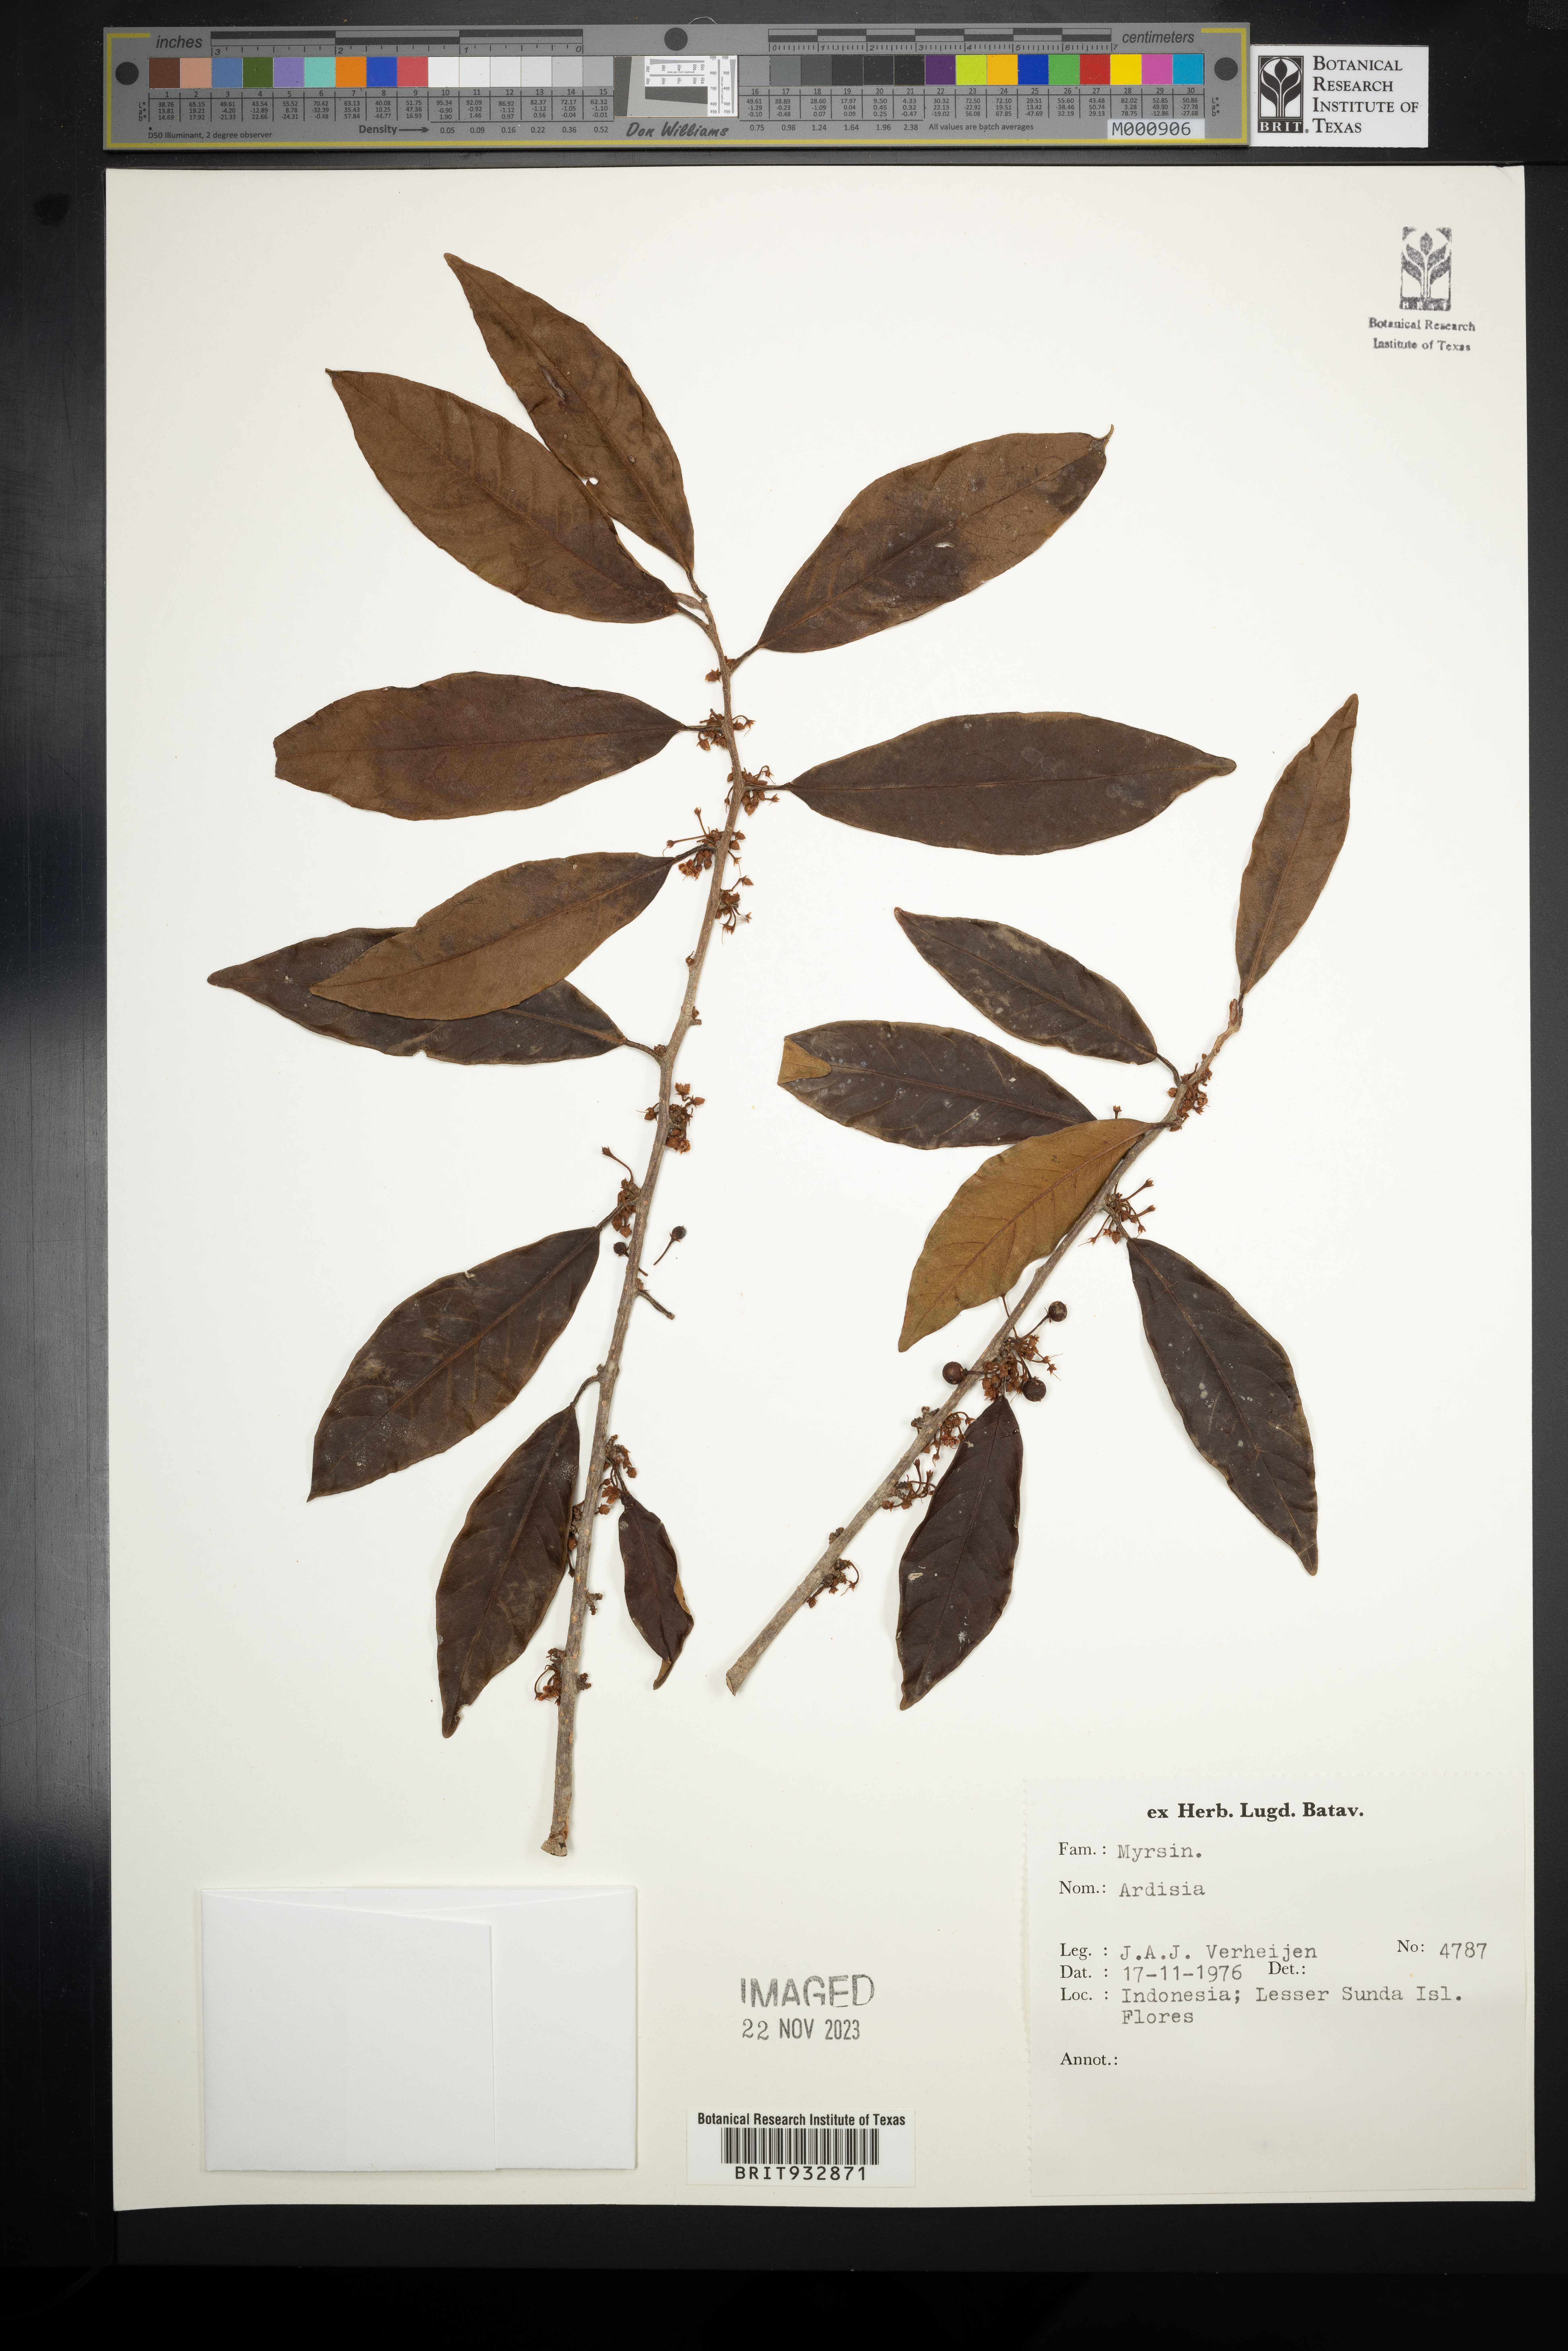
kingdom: Plantae
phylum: Tracheophyta
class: Magnoliopsida
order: Ericales
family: Primulaceae
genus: Ardisia
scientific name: Ardisia
